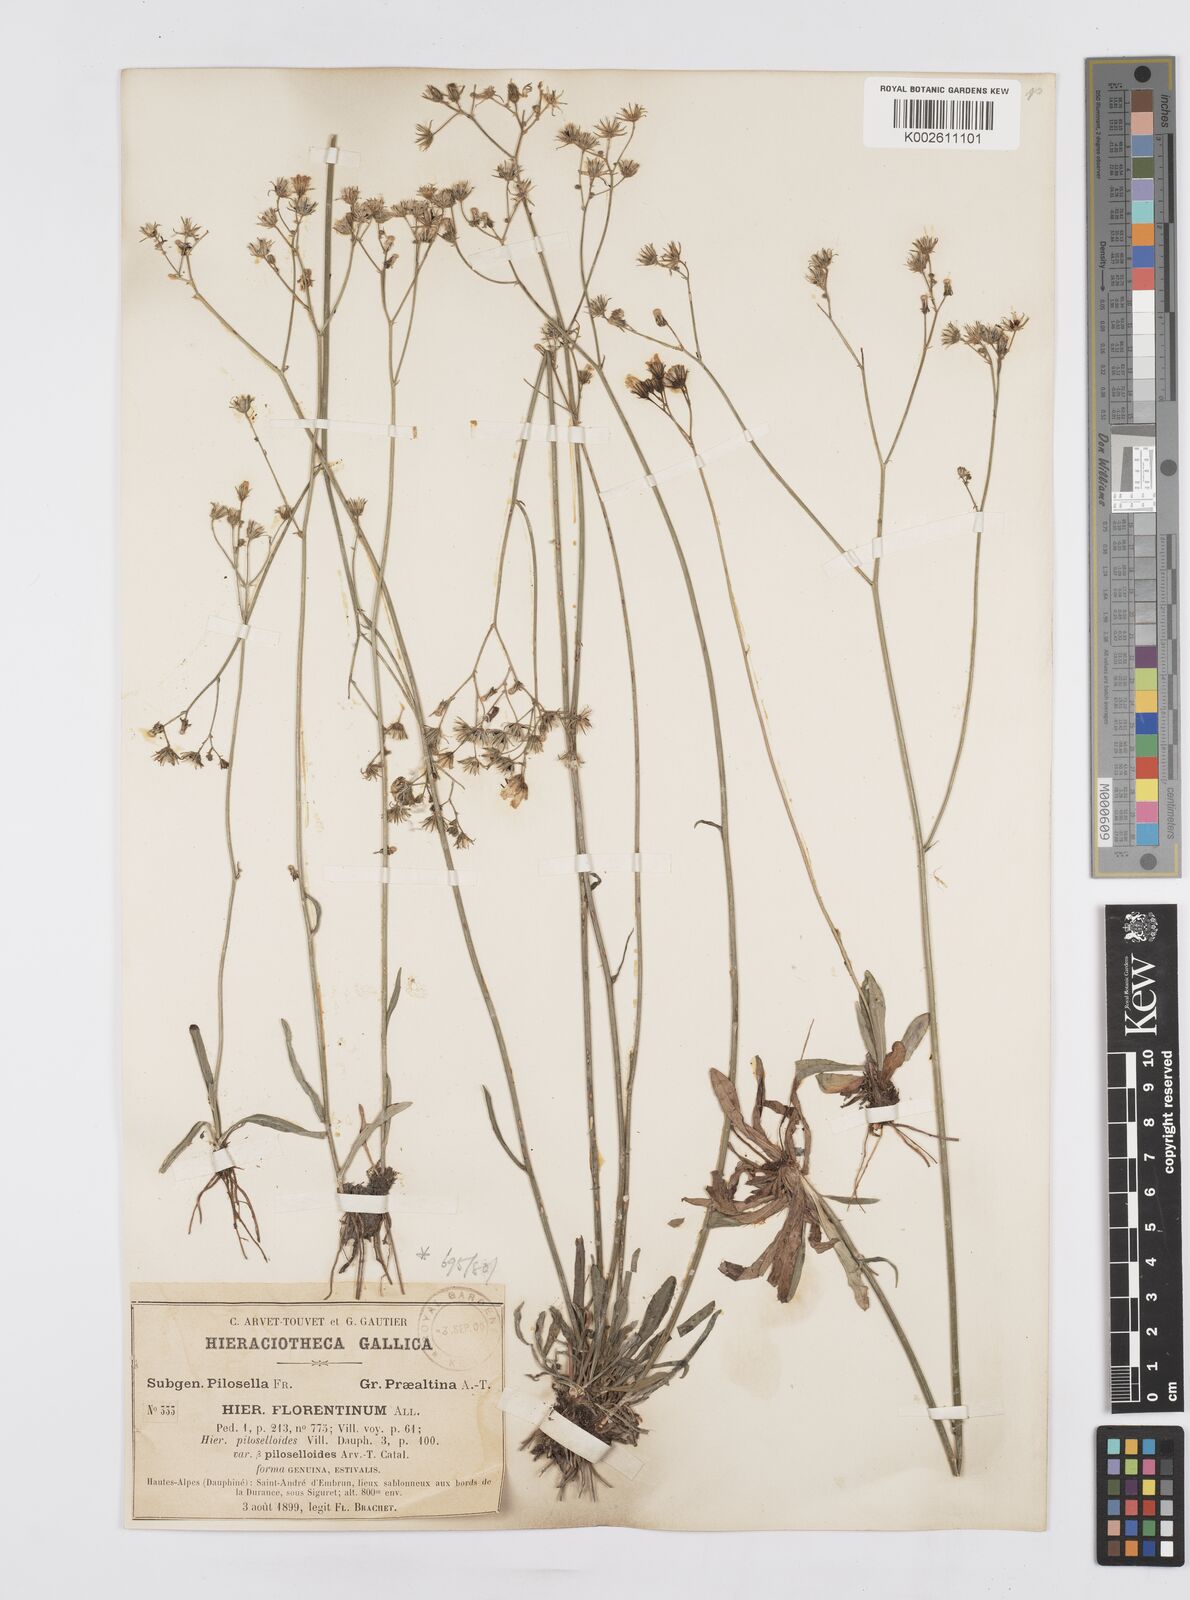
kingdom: Plantae
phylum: Tracheophyta
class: Magnoliopsida
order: Asterales
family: Asteraceae
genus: Pilosella
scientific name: Pilosella piloselloides
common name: Glaucous king-devil
